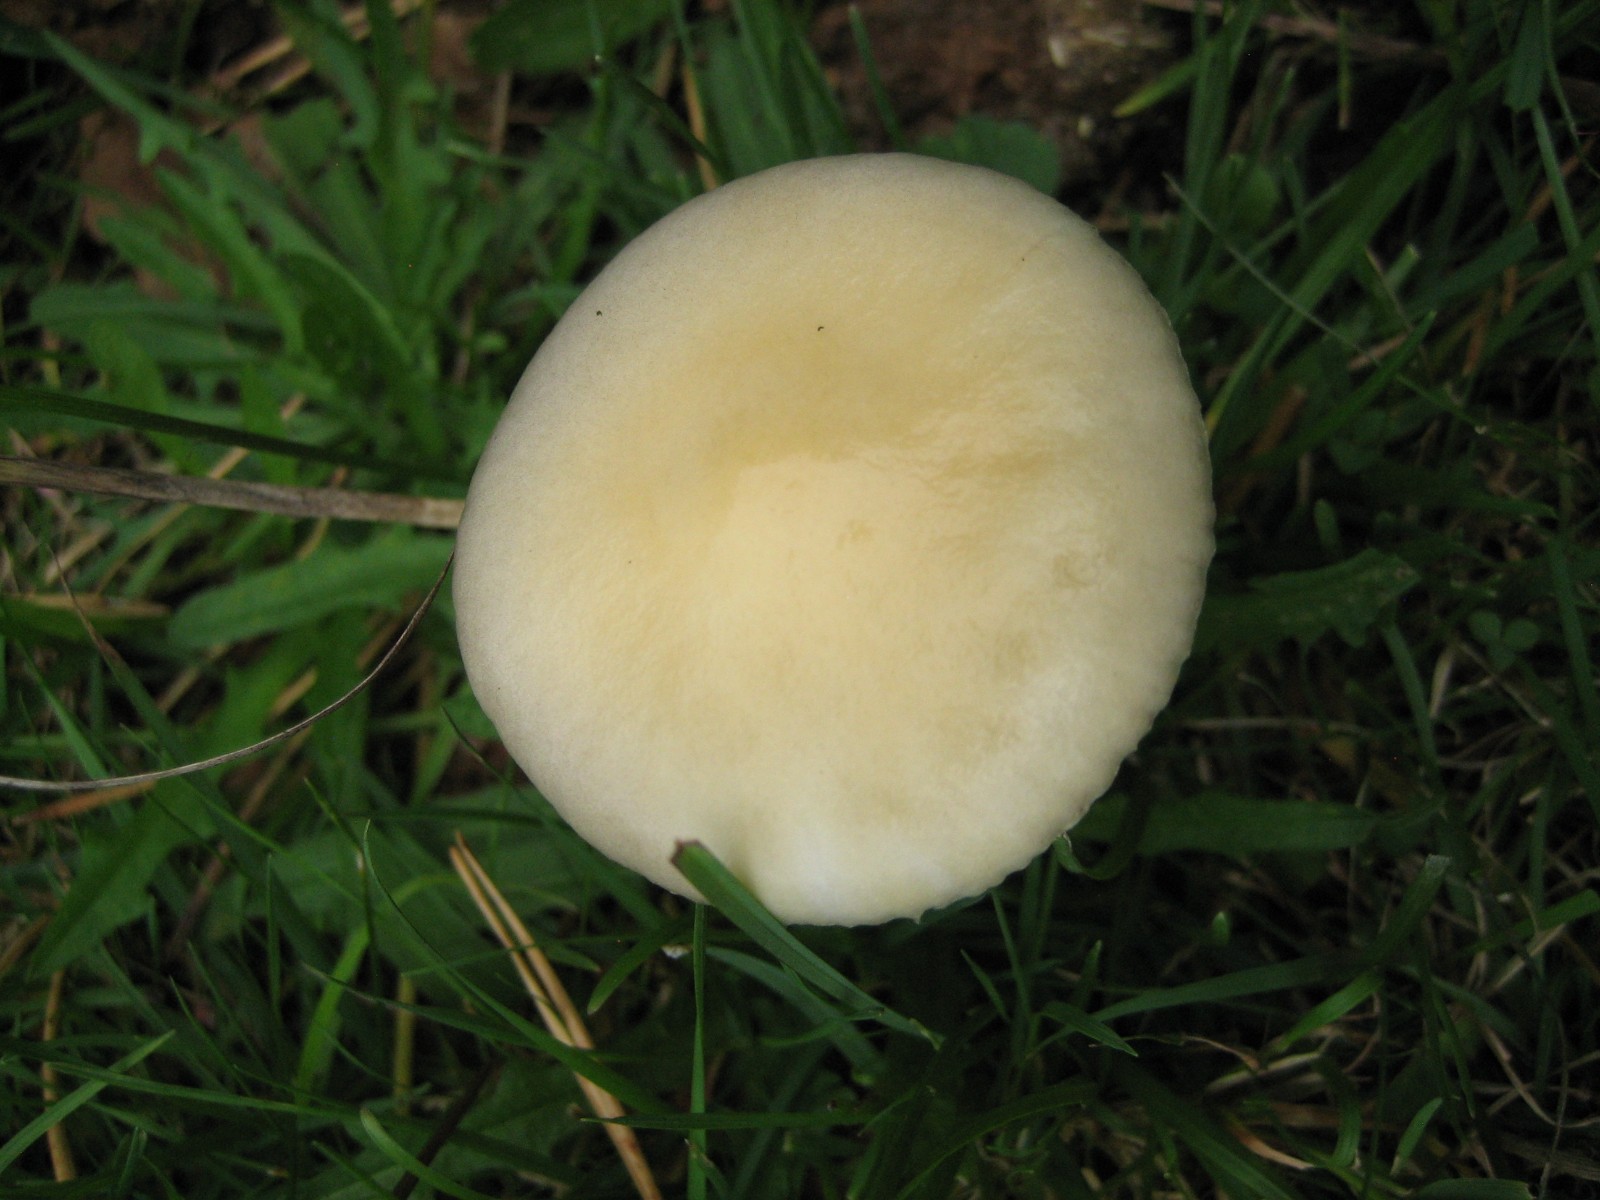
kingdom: Fungi
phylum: Basidiomycota
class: Agaricomycetes
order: Agaricales
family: Strophariaceae
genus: Protostropharia
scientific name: Protostropharia semiglobata
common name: halvkugleformet bredblad
